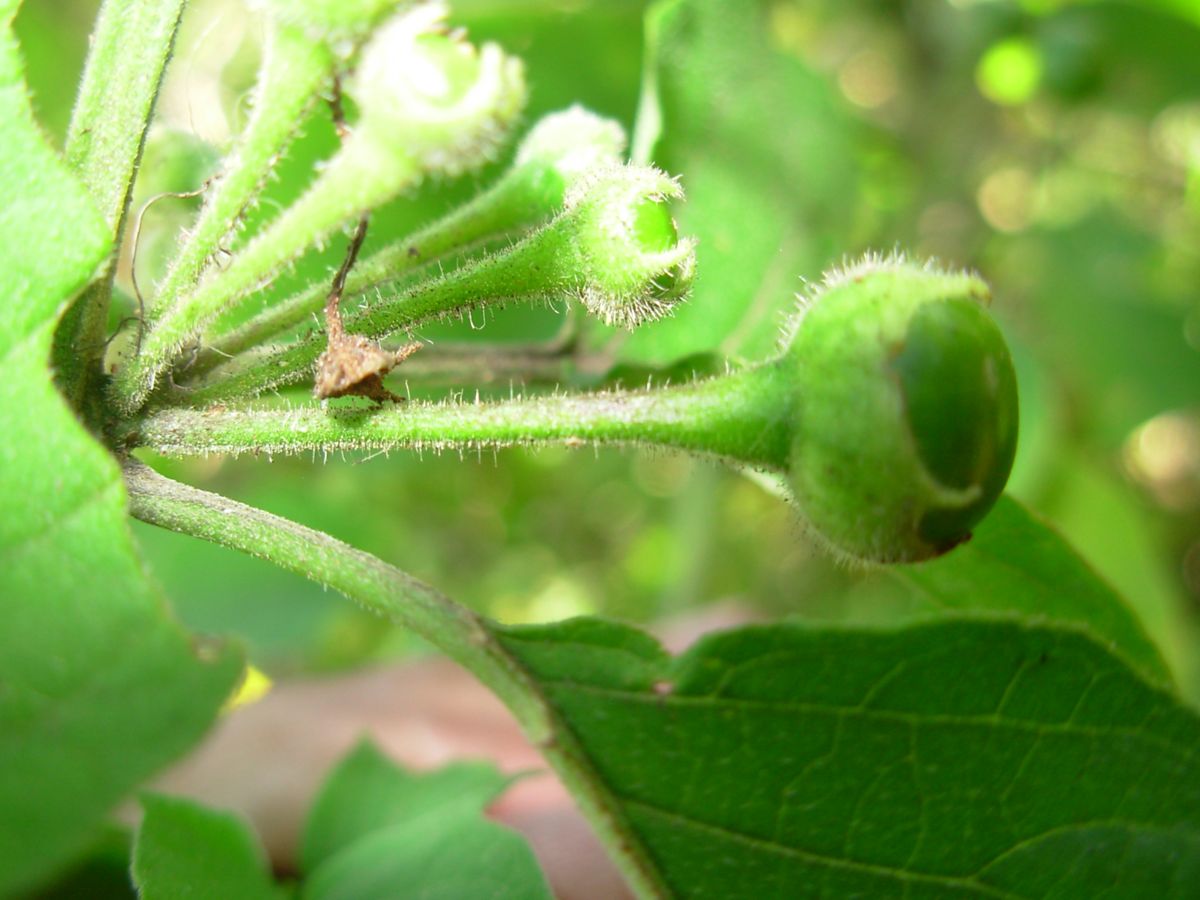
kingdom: Plantae
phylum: Tracheophyta
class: Magnoliopsida
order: Solanales
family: Solanaceae
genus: Brachistus
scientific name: Brachistus stramonifolius
